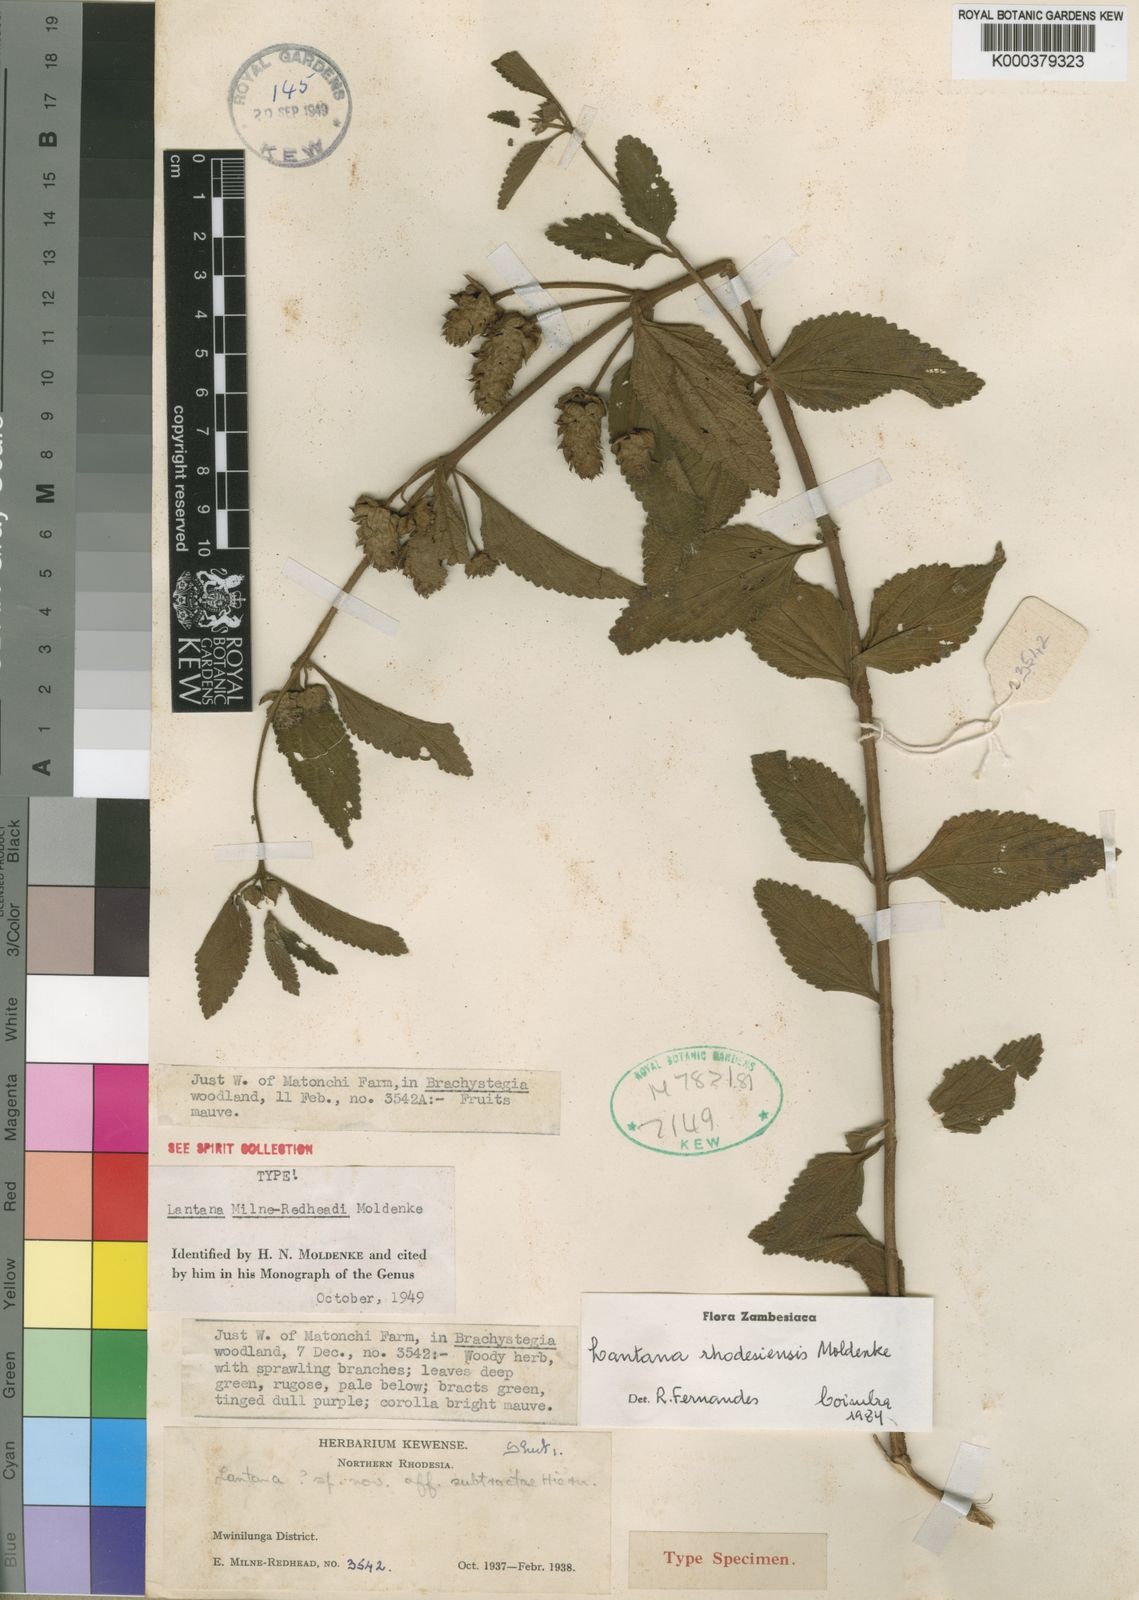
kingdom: Plantae
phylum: Tracheophyta
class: Magnoliopsida
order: Lamiales
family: Verbenaceae
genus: Lantana
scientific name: Lantana ukambensis
